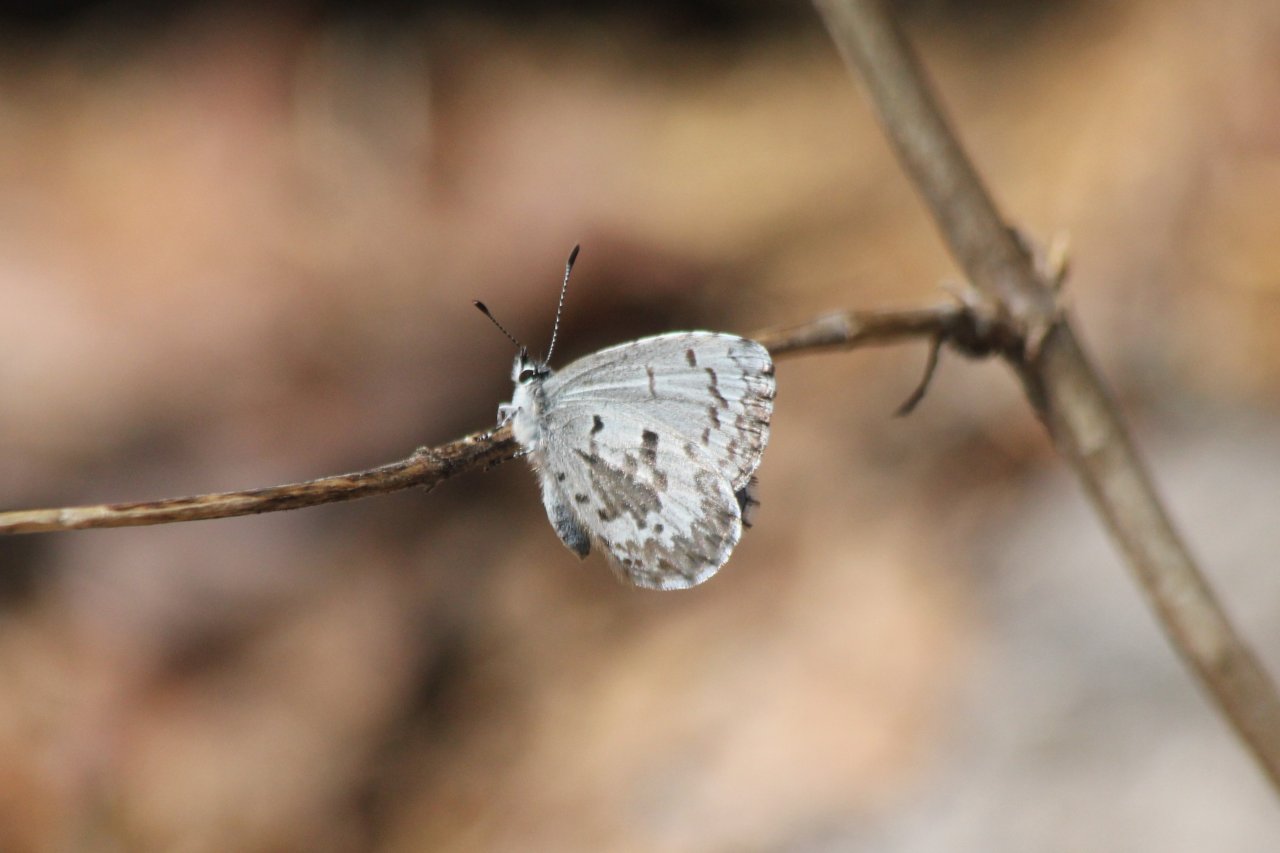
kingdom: Animalia
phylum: Arthropoda
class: Insecta
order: Lepidoptera
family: Lycaenidae
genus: Celastrina
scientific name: Celastrina lucia
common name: Northern Spring Azure
